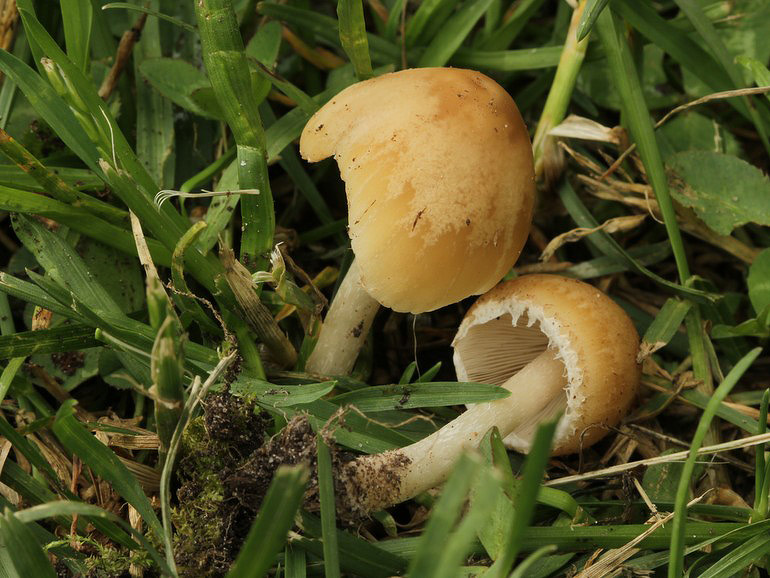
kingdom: Fungi
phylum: Basidiomycota
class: Agaricomycetes
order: Agaricales
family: Psathyrellaceae
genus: Candolleomyces
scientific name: Candolleomyces candolleanus
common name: Candolles mørkhat
